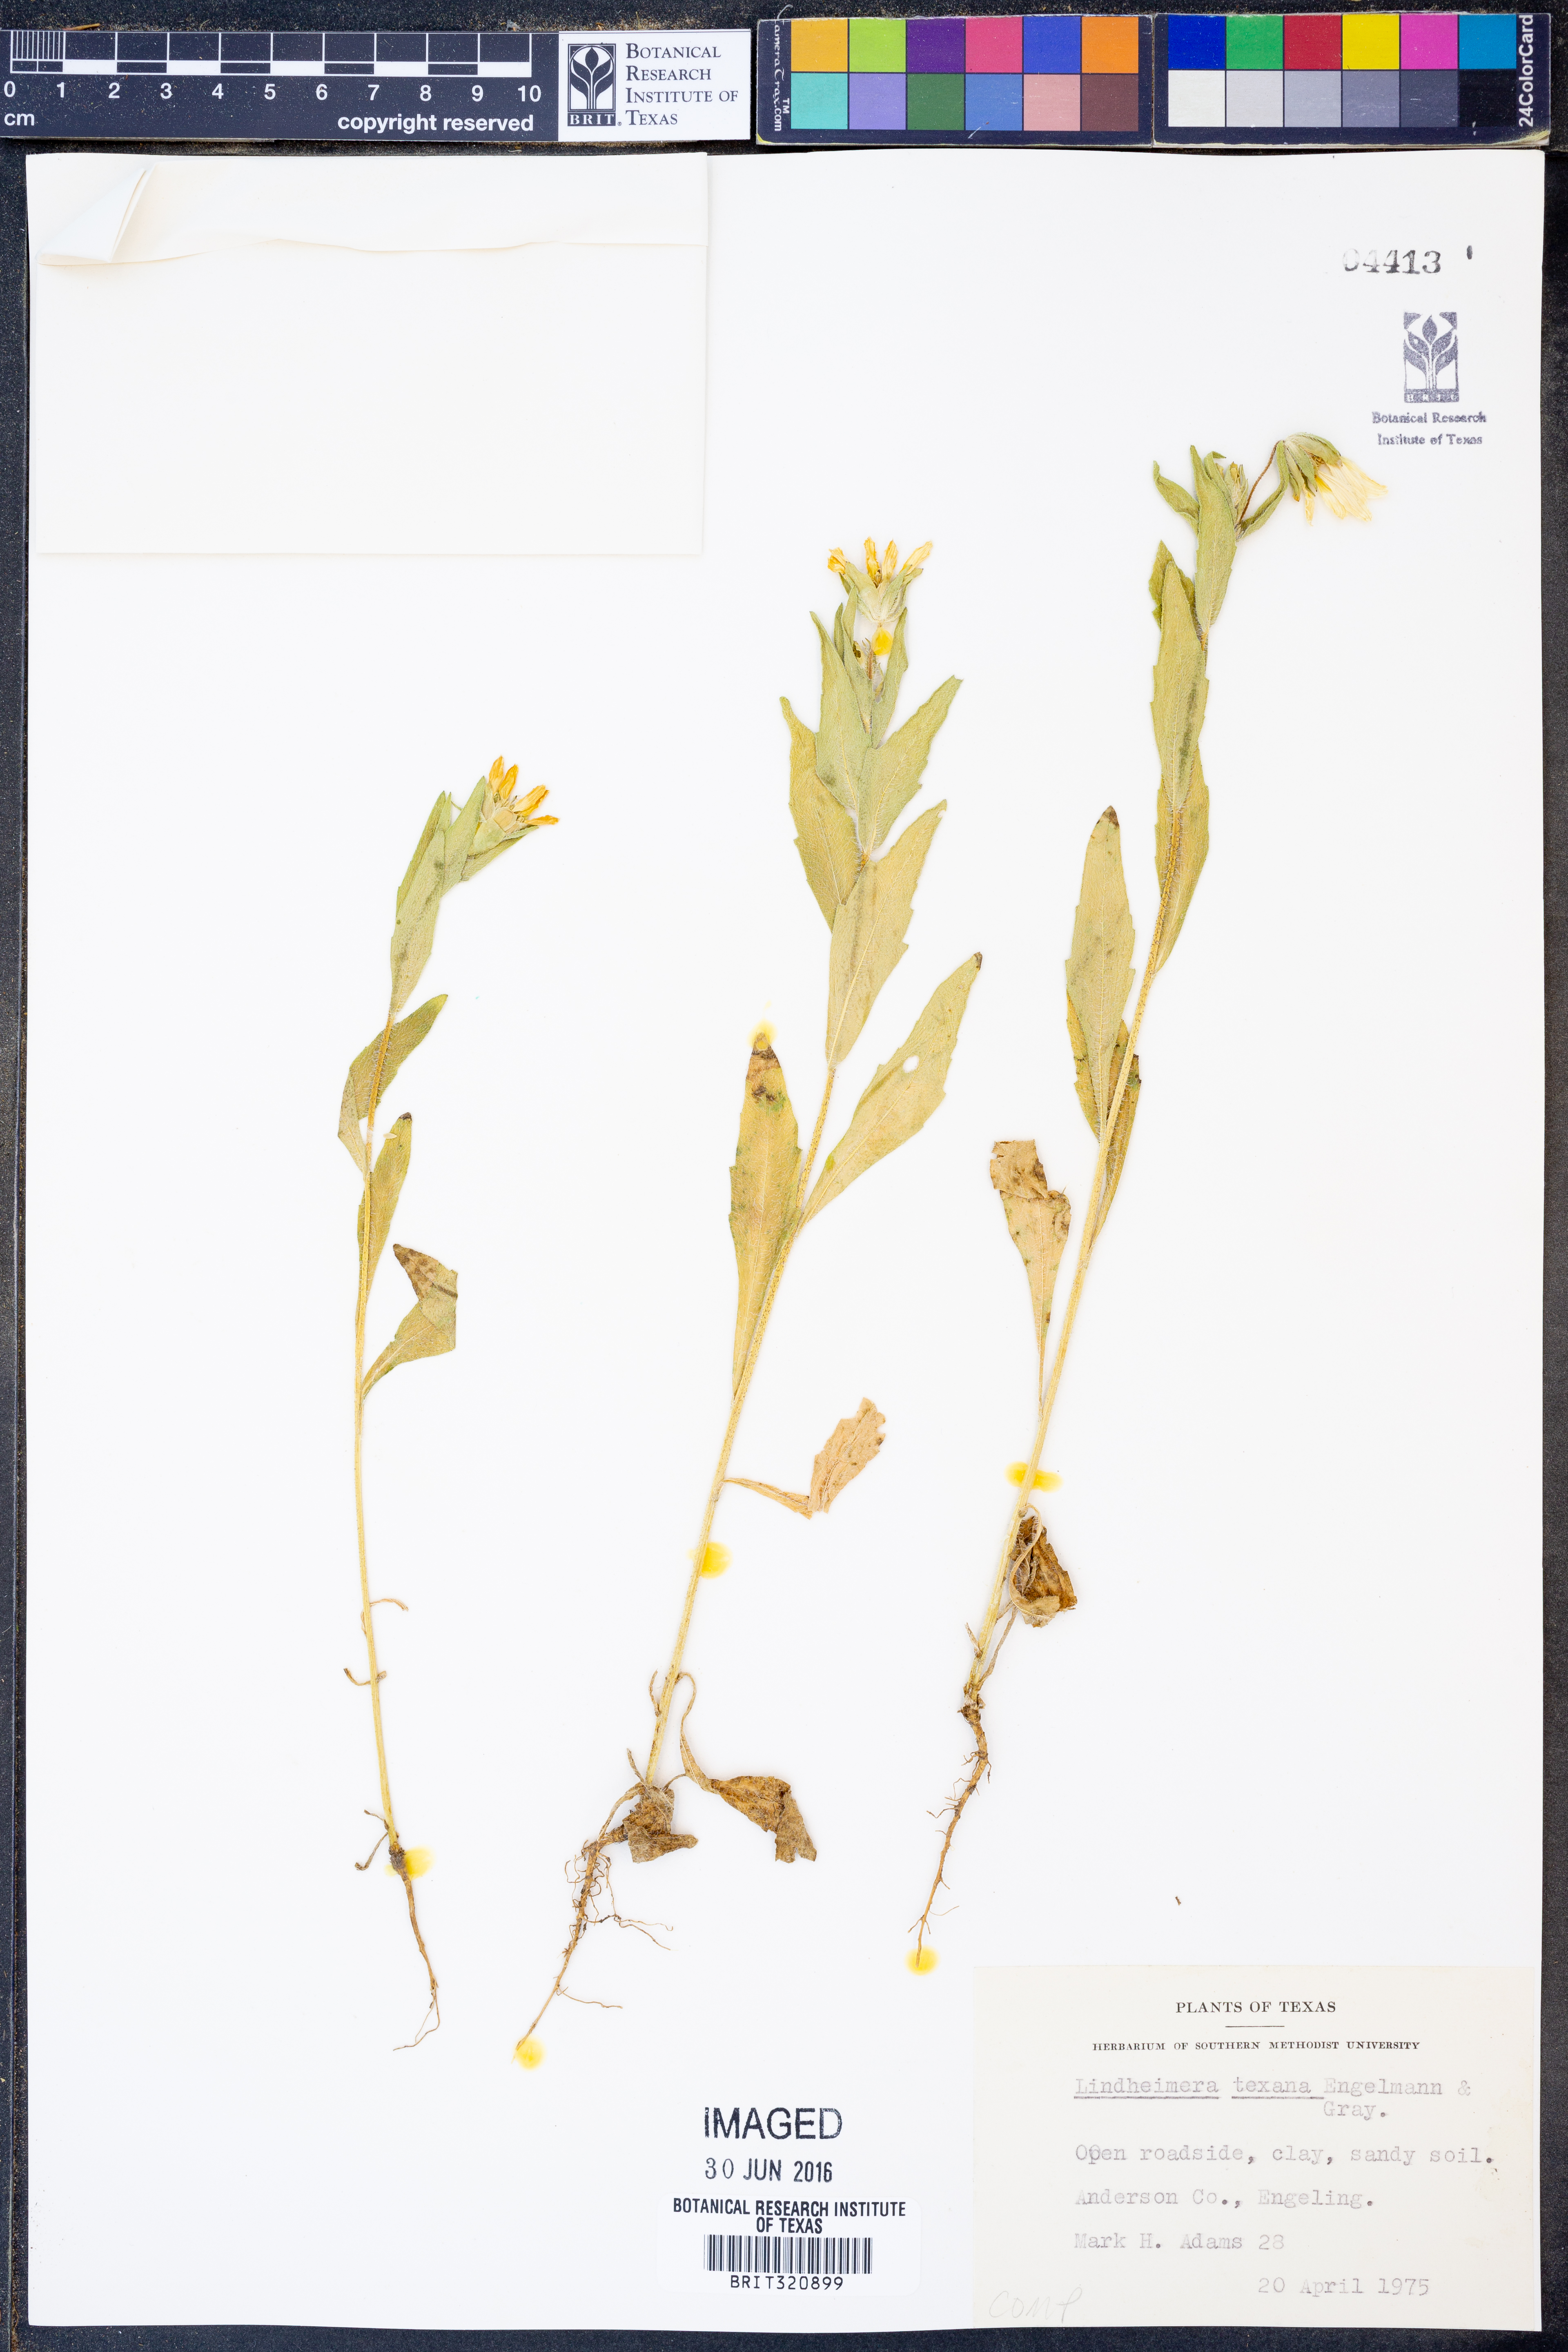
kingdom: Plantae
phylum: Tracheophyta
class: Magnoliopsida
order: Asterales
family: Asteraceae
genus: Lindheimera
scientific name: Lindheimera texana
